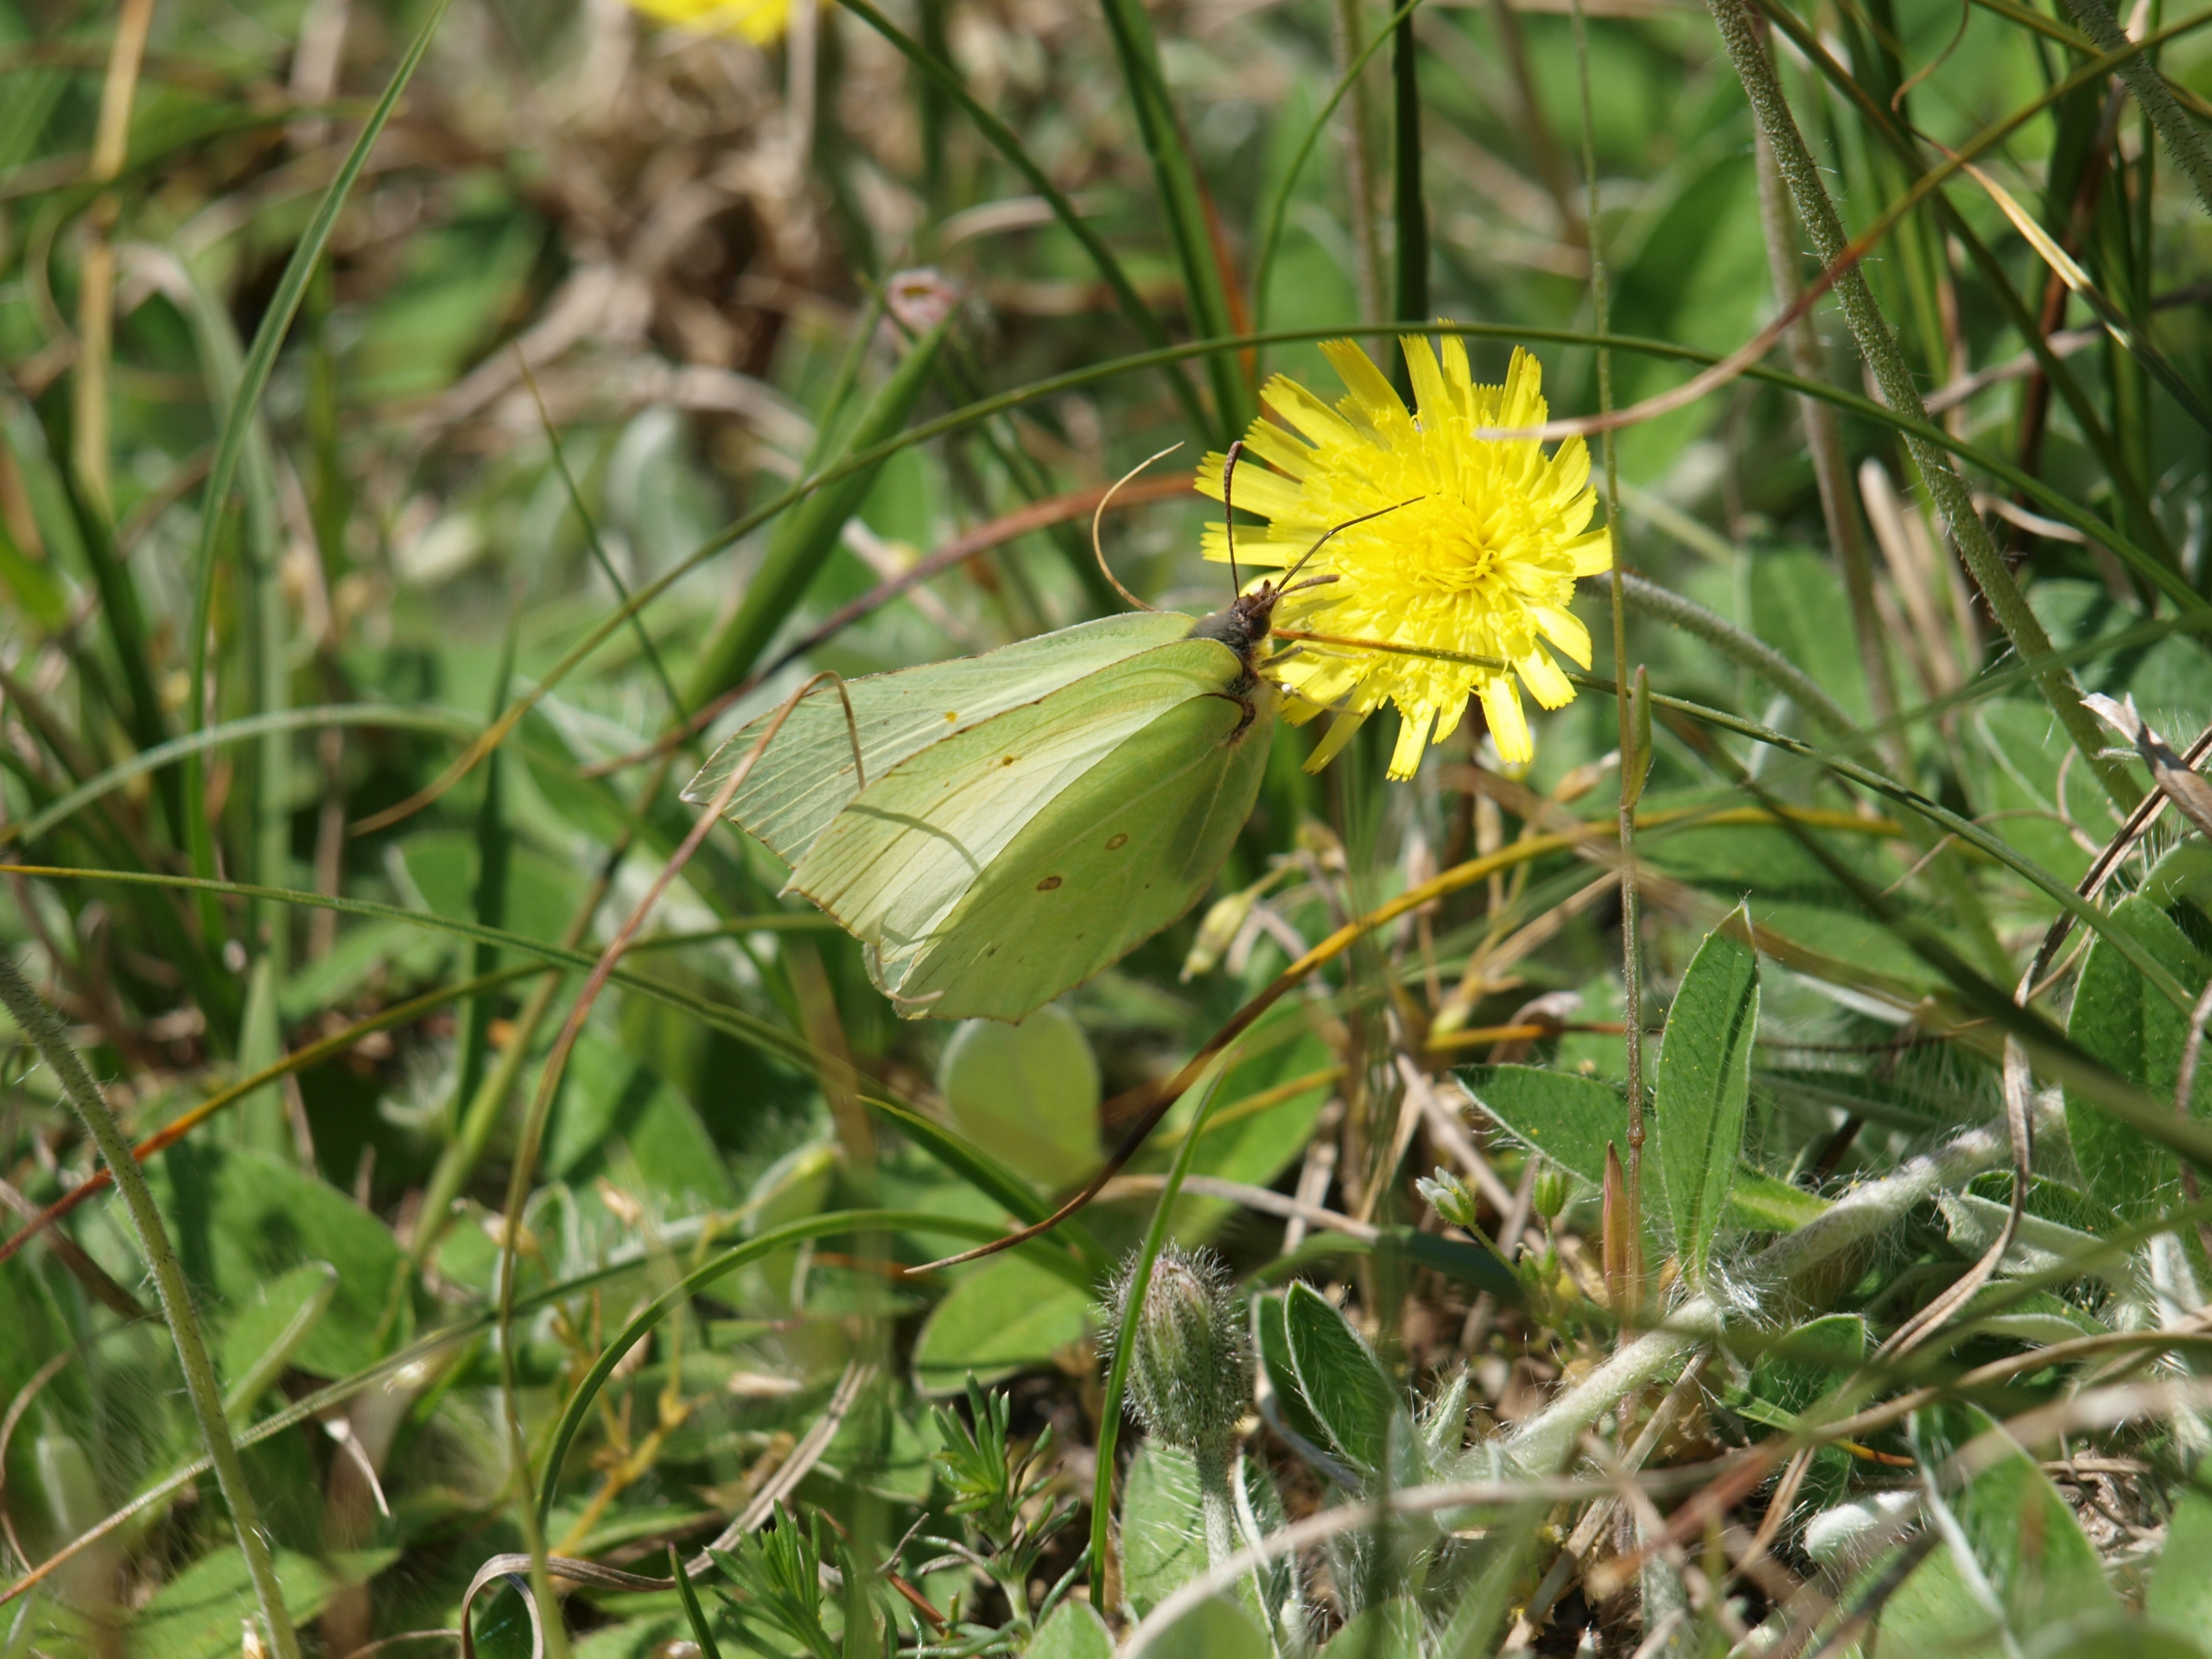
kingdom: Animalia
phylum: Arthropoda
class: Insecta
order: Lepidoptera
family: Pieridae
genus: Gonepteryx
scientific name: Gonepteryx rhamni
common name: Citronsommerfugl
